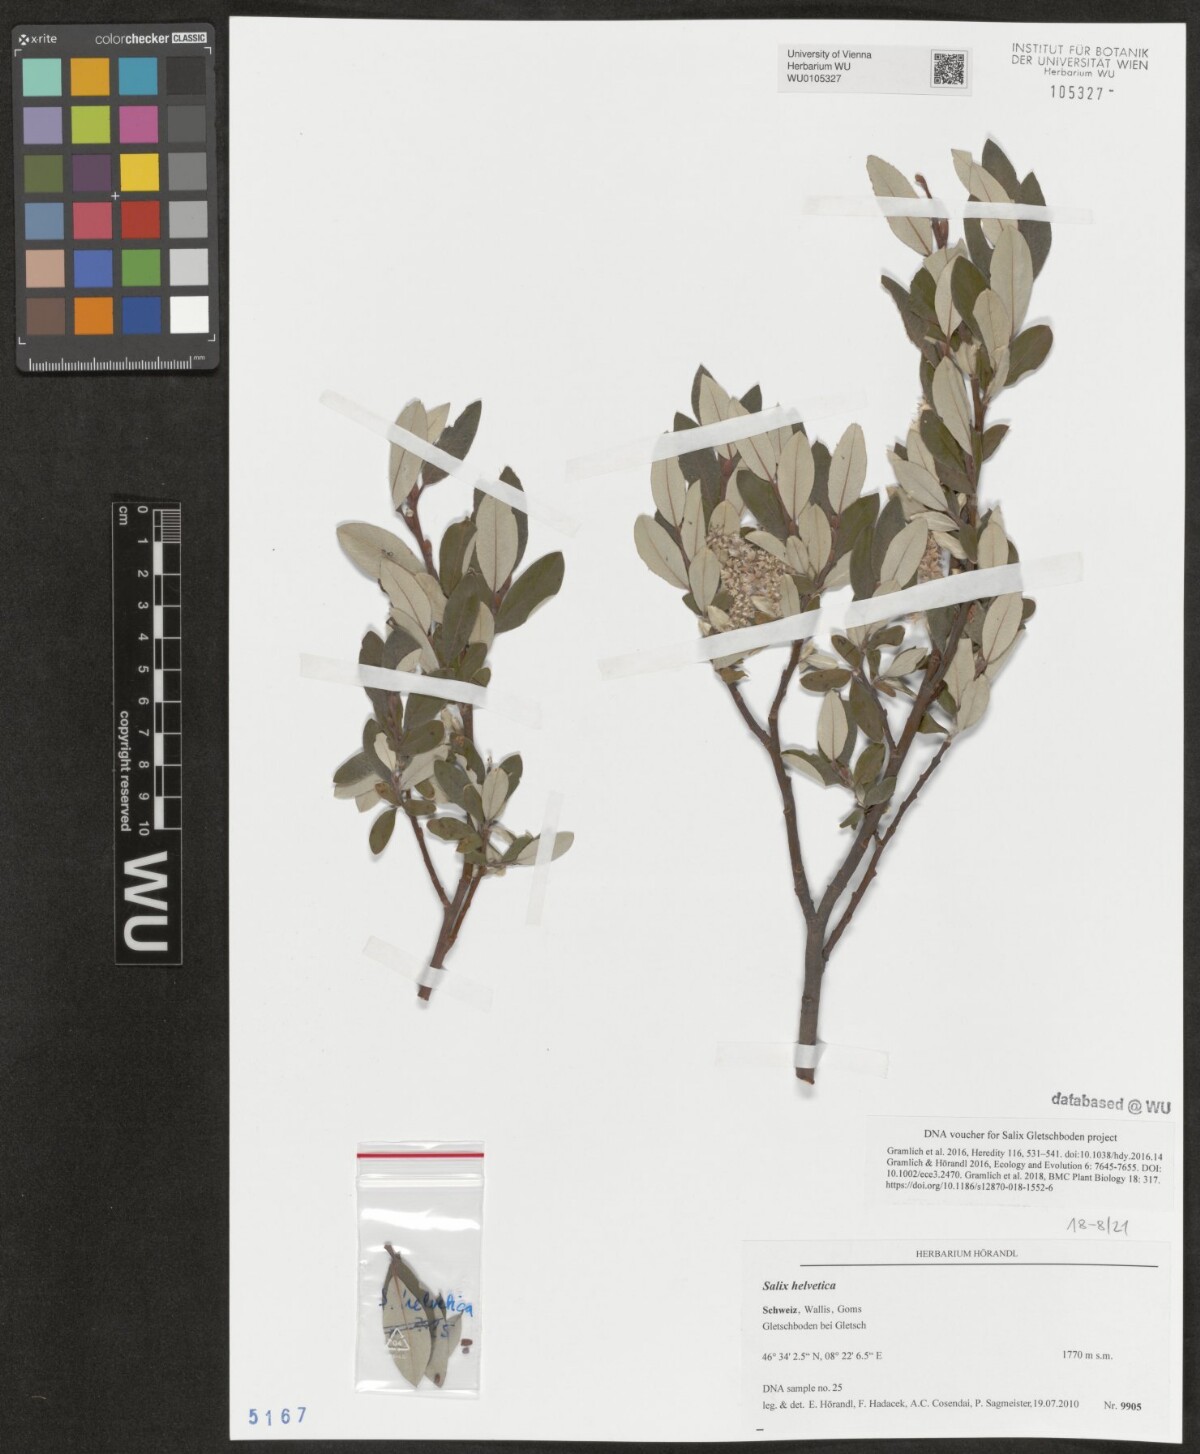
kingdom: Plantae
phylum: Tracheophyta
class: Magnoliopsida
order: Malpighiales
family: Salicaceae
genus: Salix
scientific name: Salix helvetica
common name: Swiss willow
